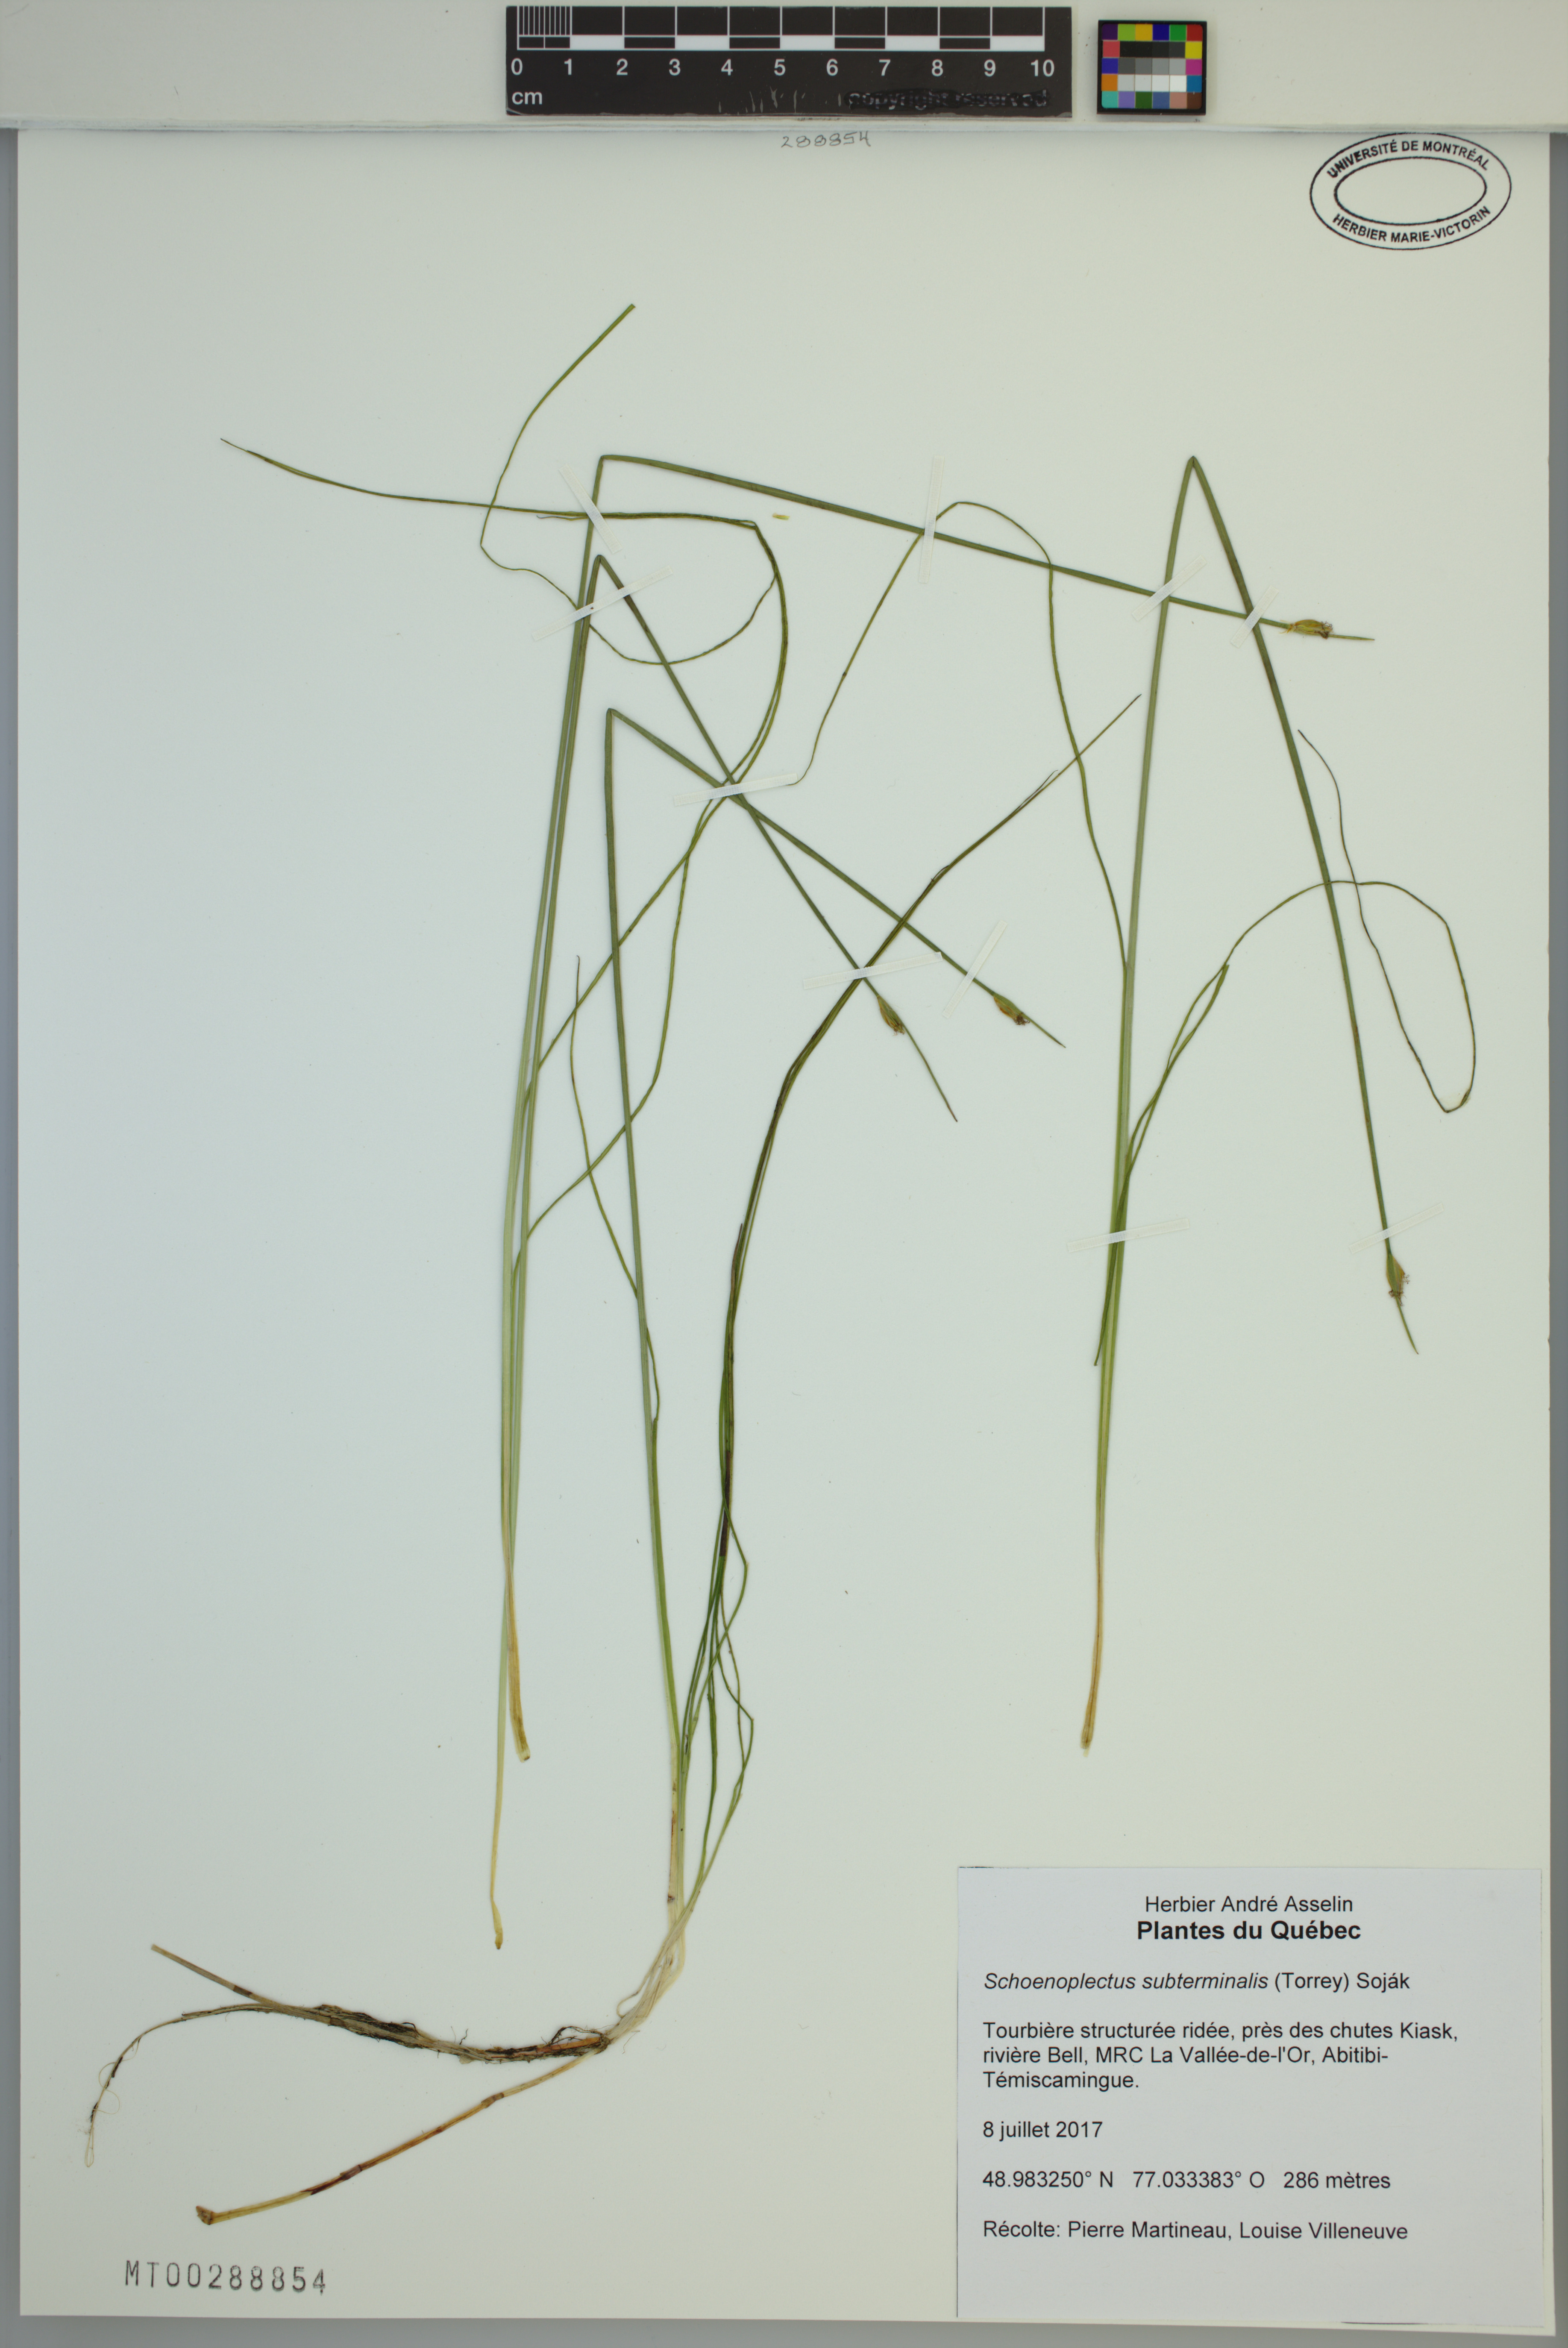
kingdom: Plantae
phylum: Tracheophyta
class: Liliopsida
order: Poales
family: Cyperaceae
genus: Schoenoplectus
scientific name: Schoenoplectus subterminalis
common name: Swaying bulrush
